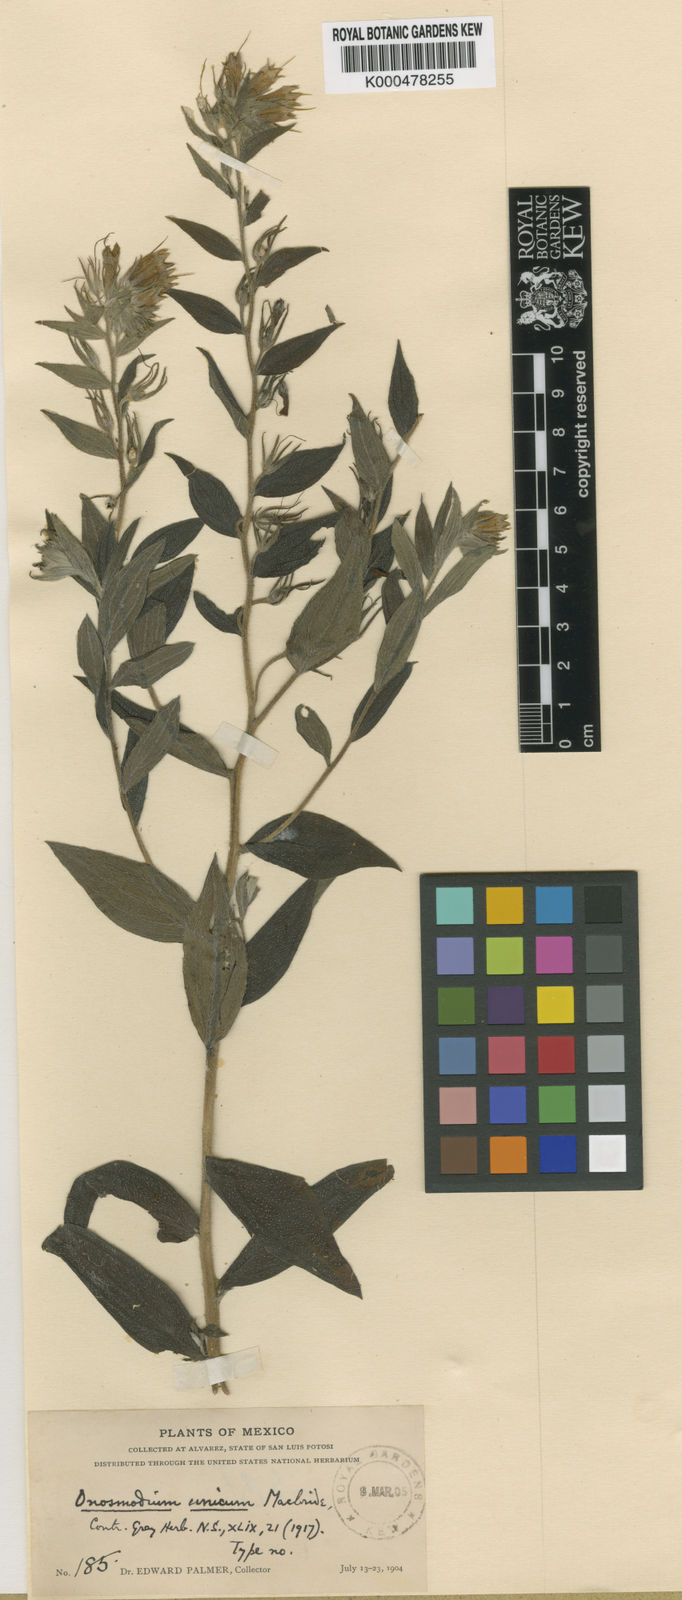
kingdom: Plantae
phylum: Tracheophyta
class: Magnoliopsida
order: Boraginales
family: Boraginaceae
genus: Lithospermum
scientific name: Lithospermum unicum
